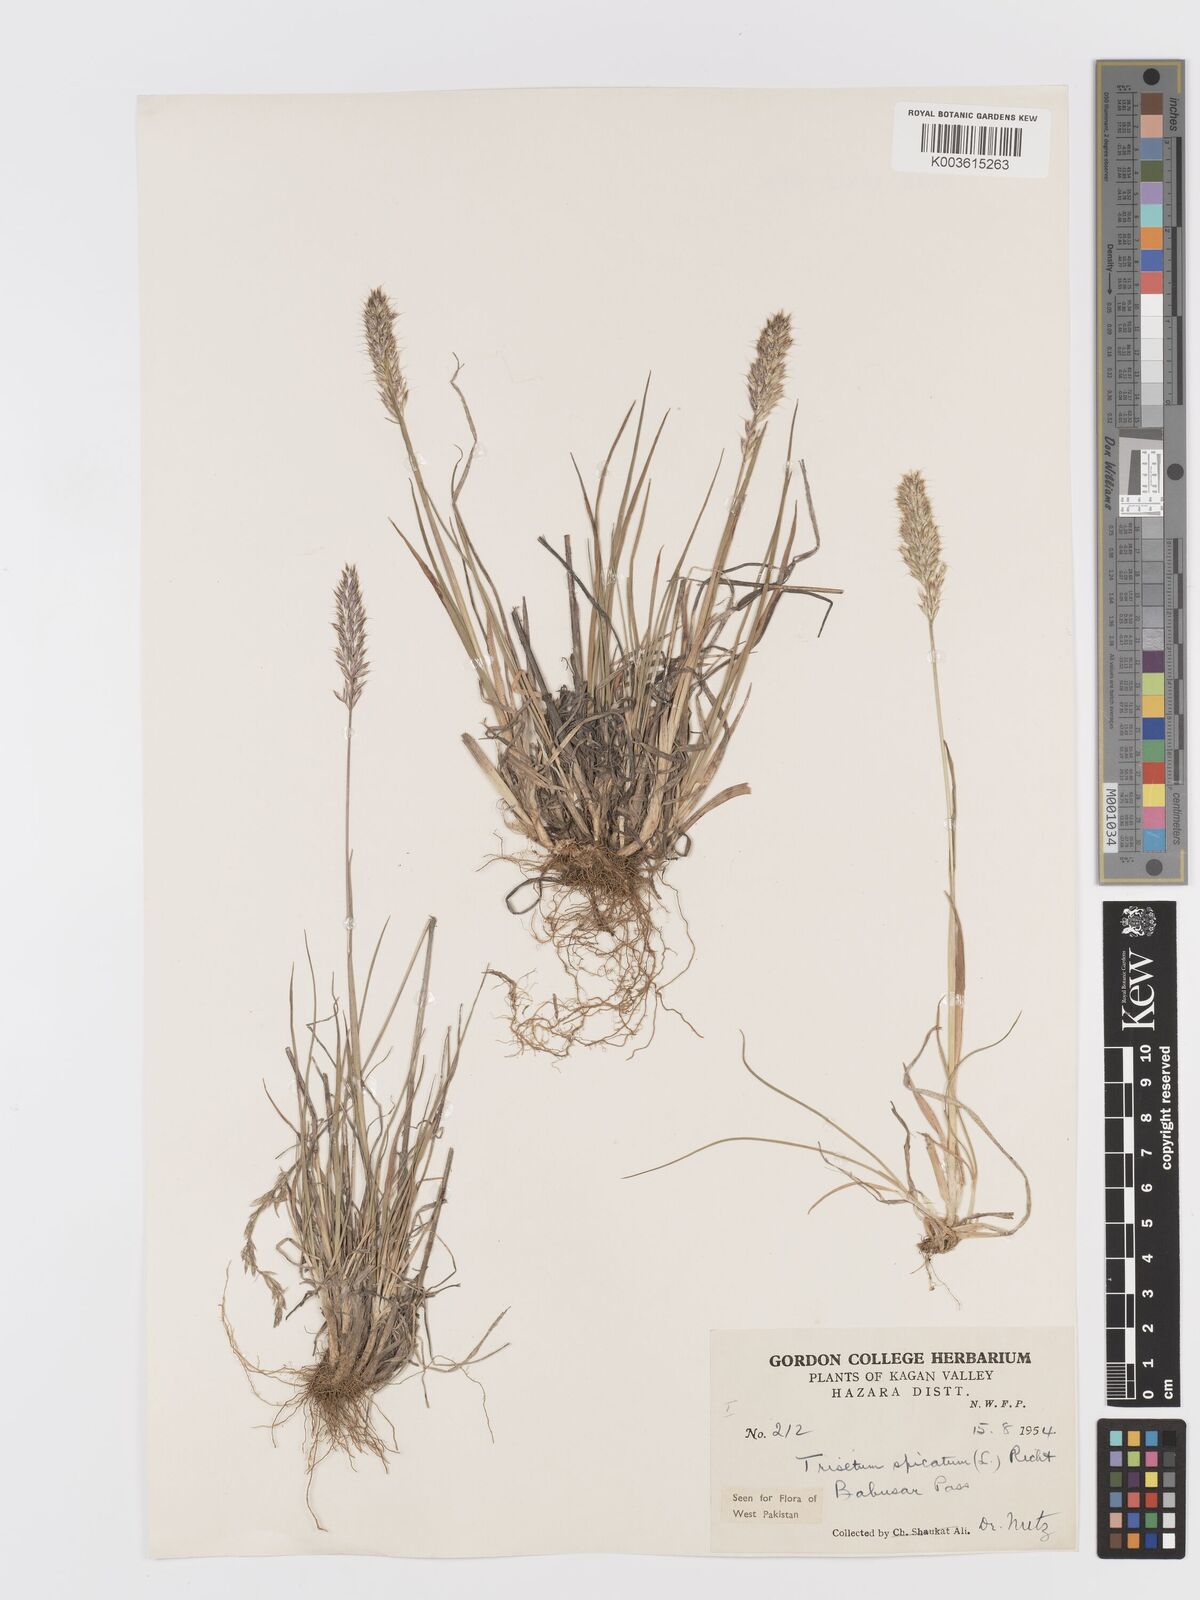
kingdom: Plantae
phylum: Tracheophyta
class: Liliopsida
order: Poales
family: Poaceae
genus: Koeleria
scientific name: Koeleria spicata
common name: Mountain trisetum
